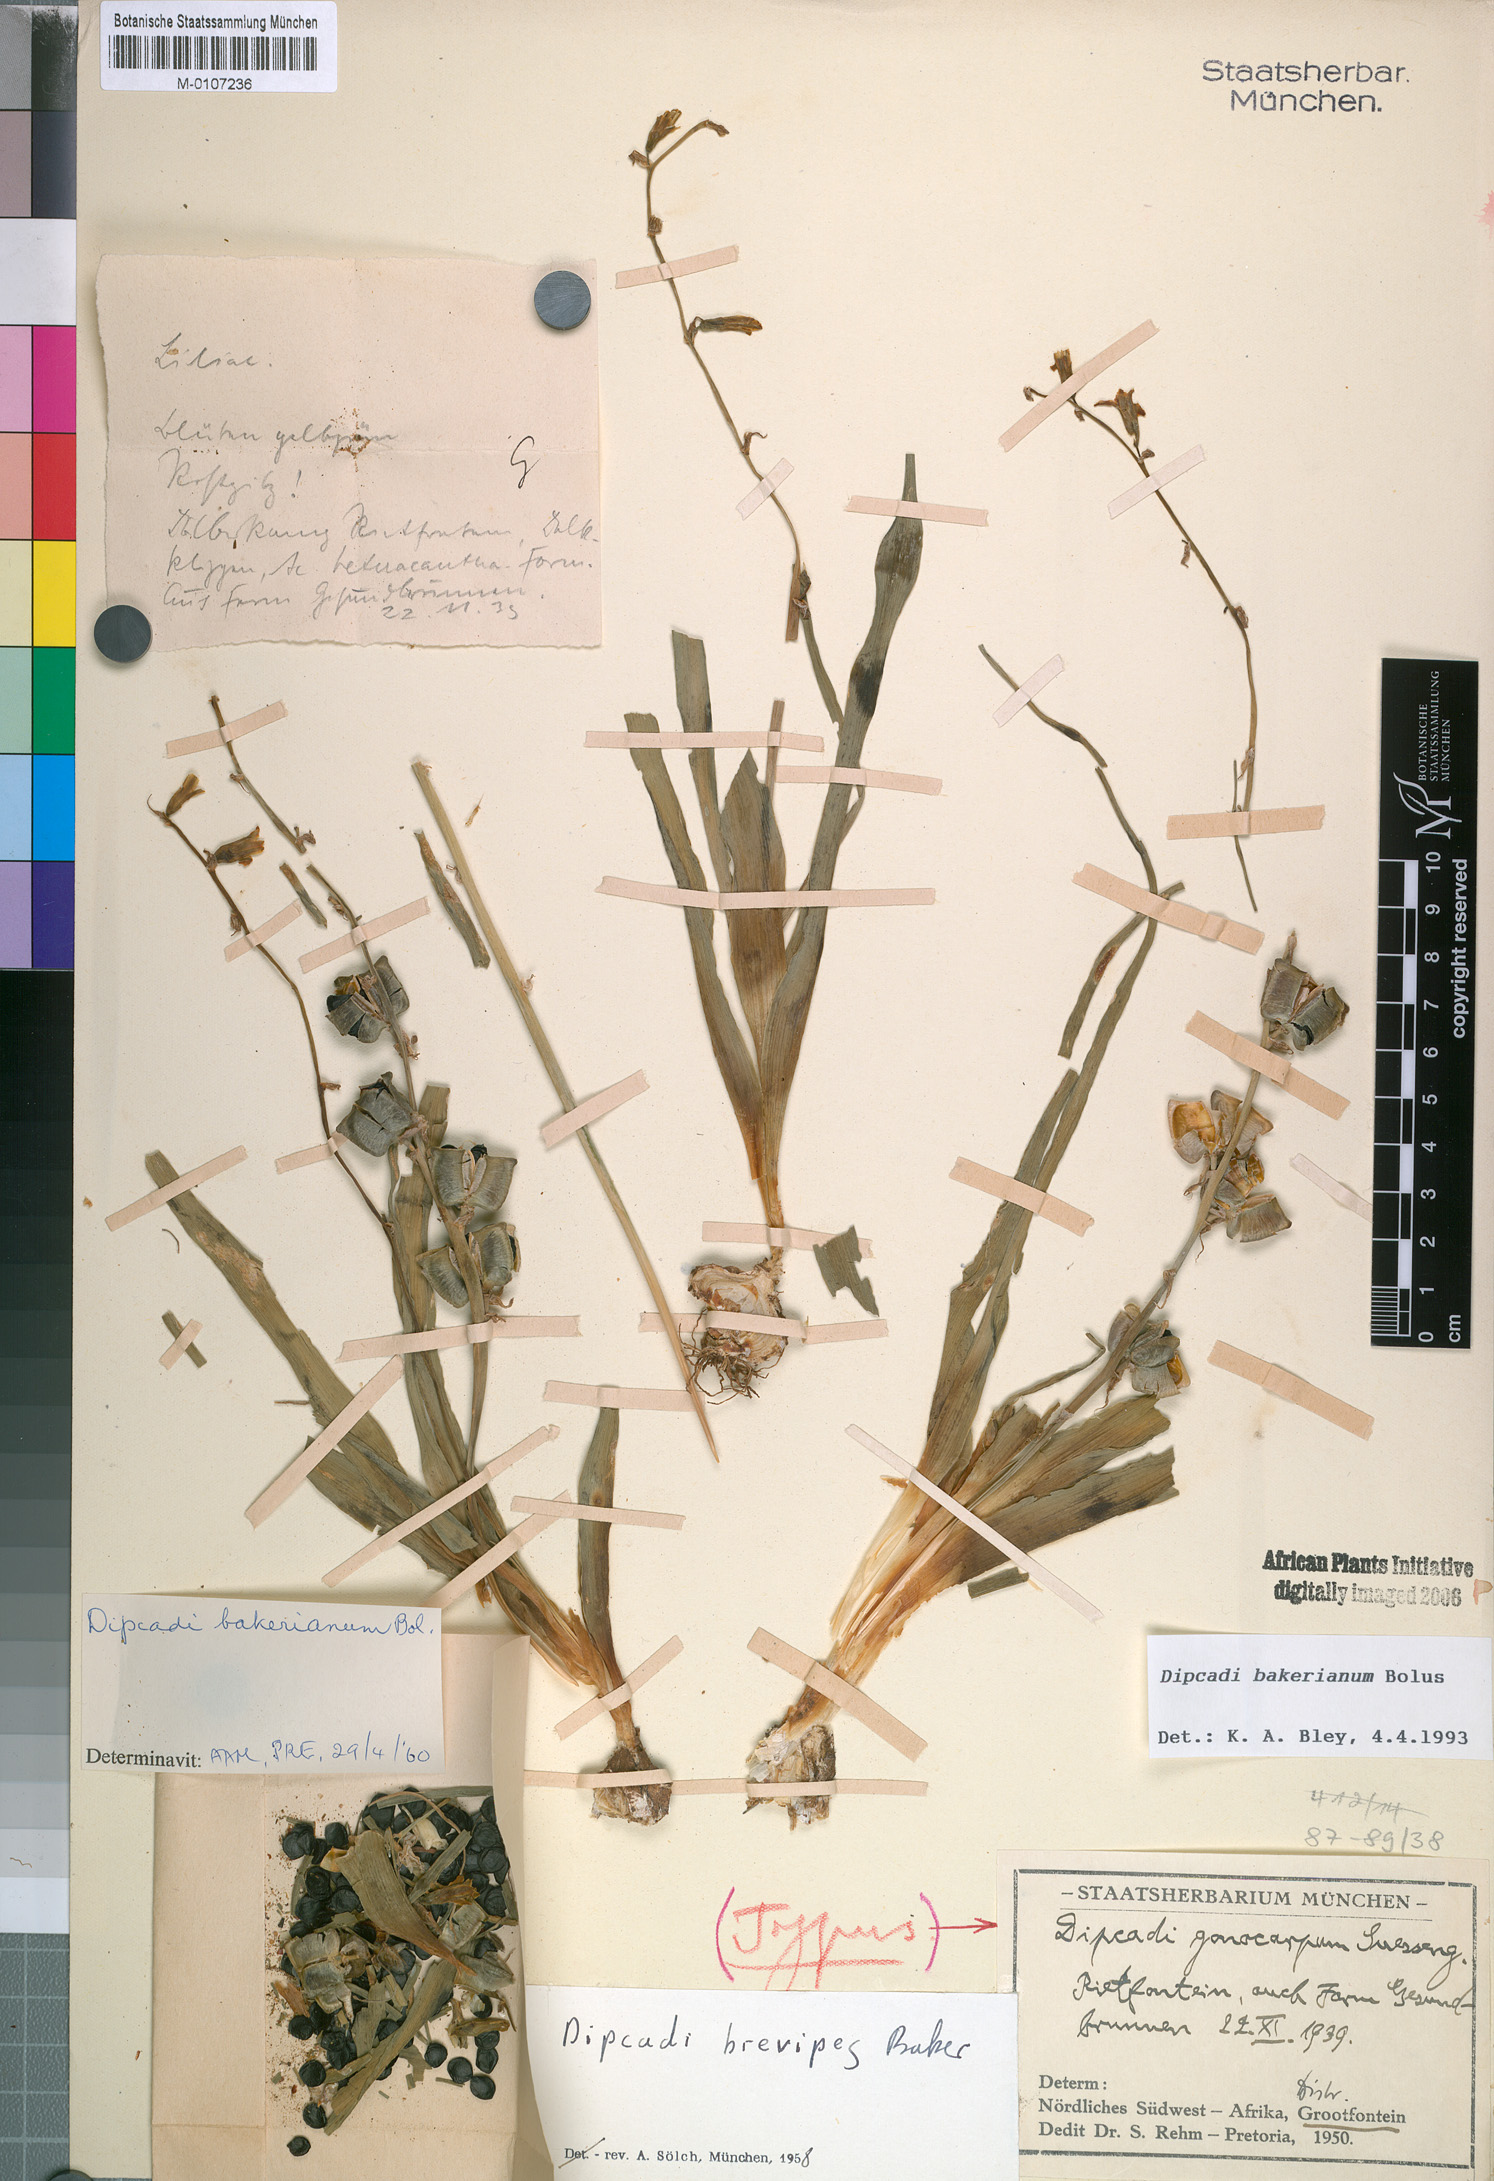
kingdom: Plantae
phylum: Tracheophyta
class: Liliopsida
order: Asparagales
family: Asparagaceae
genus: Dipcadi
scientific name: Dipcadi bakerianum
